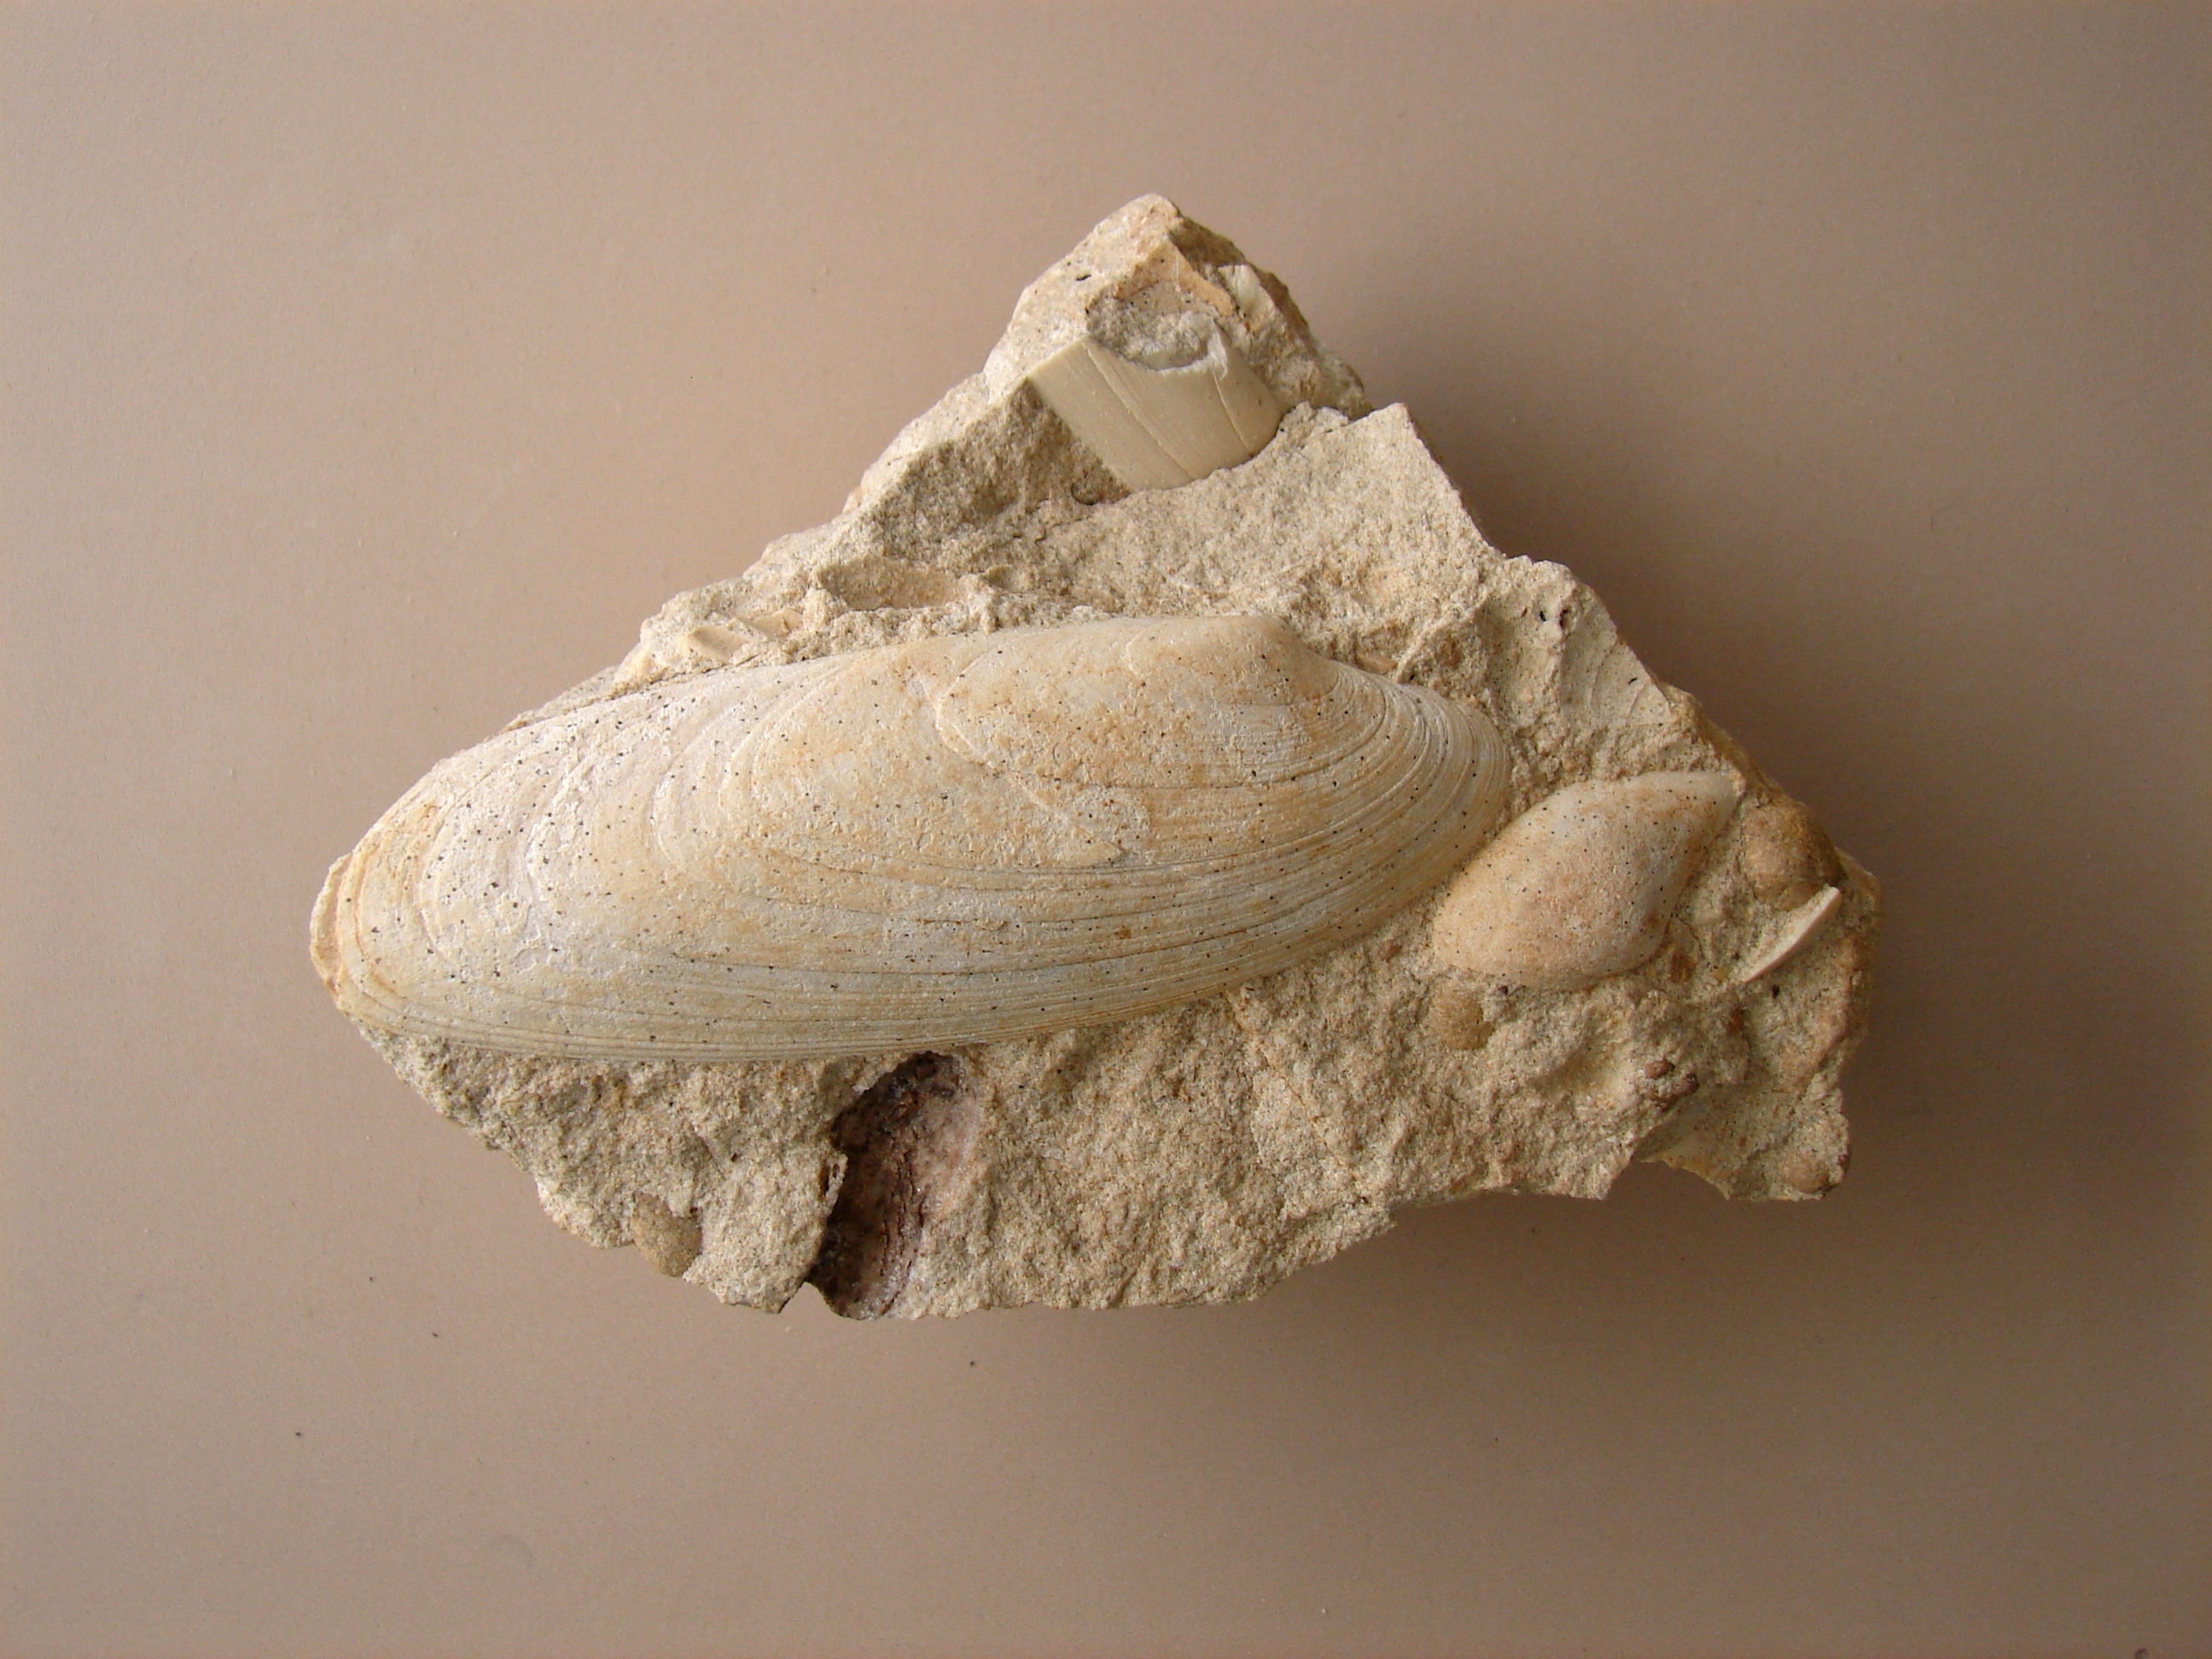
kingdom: Animalia
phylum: Mollusca
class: Bivalvia
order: Carditida
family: Cardiniidae
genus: Cardinia
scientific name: Cardinia
